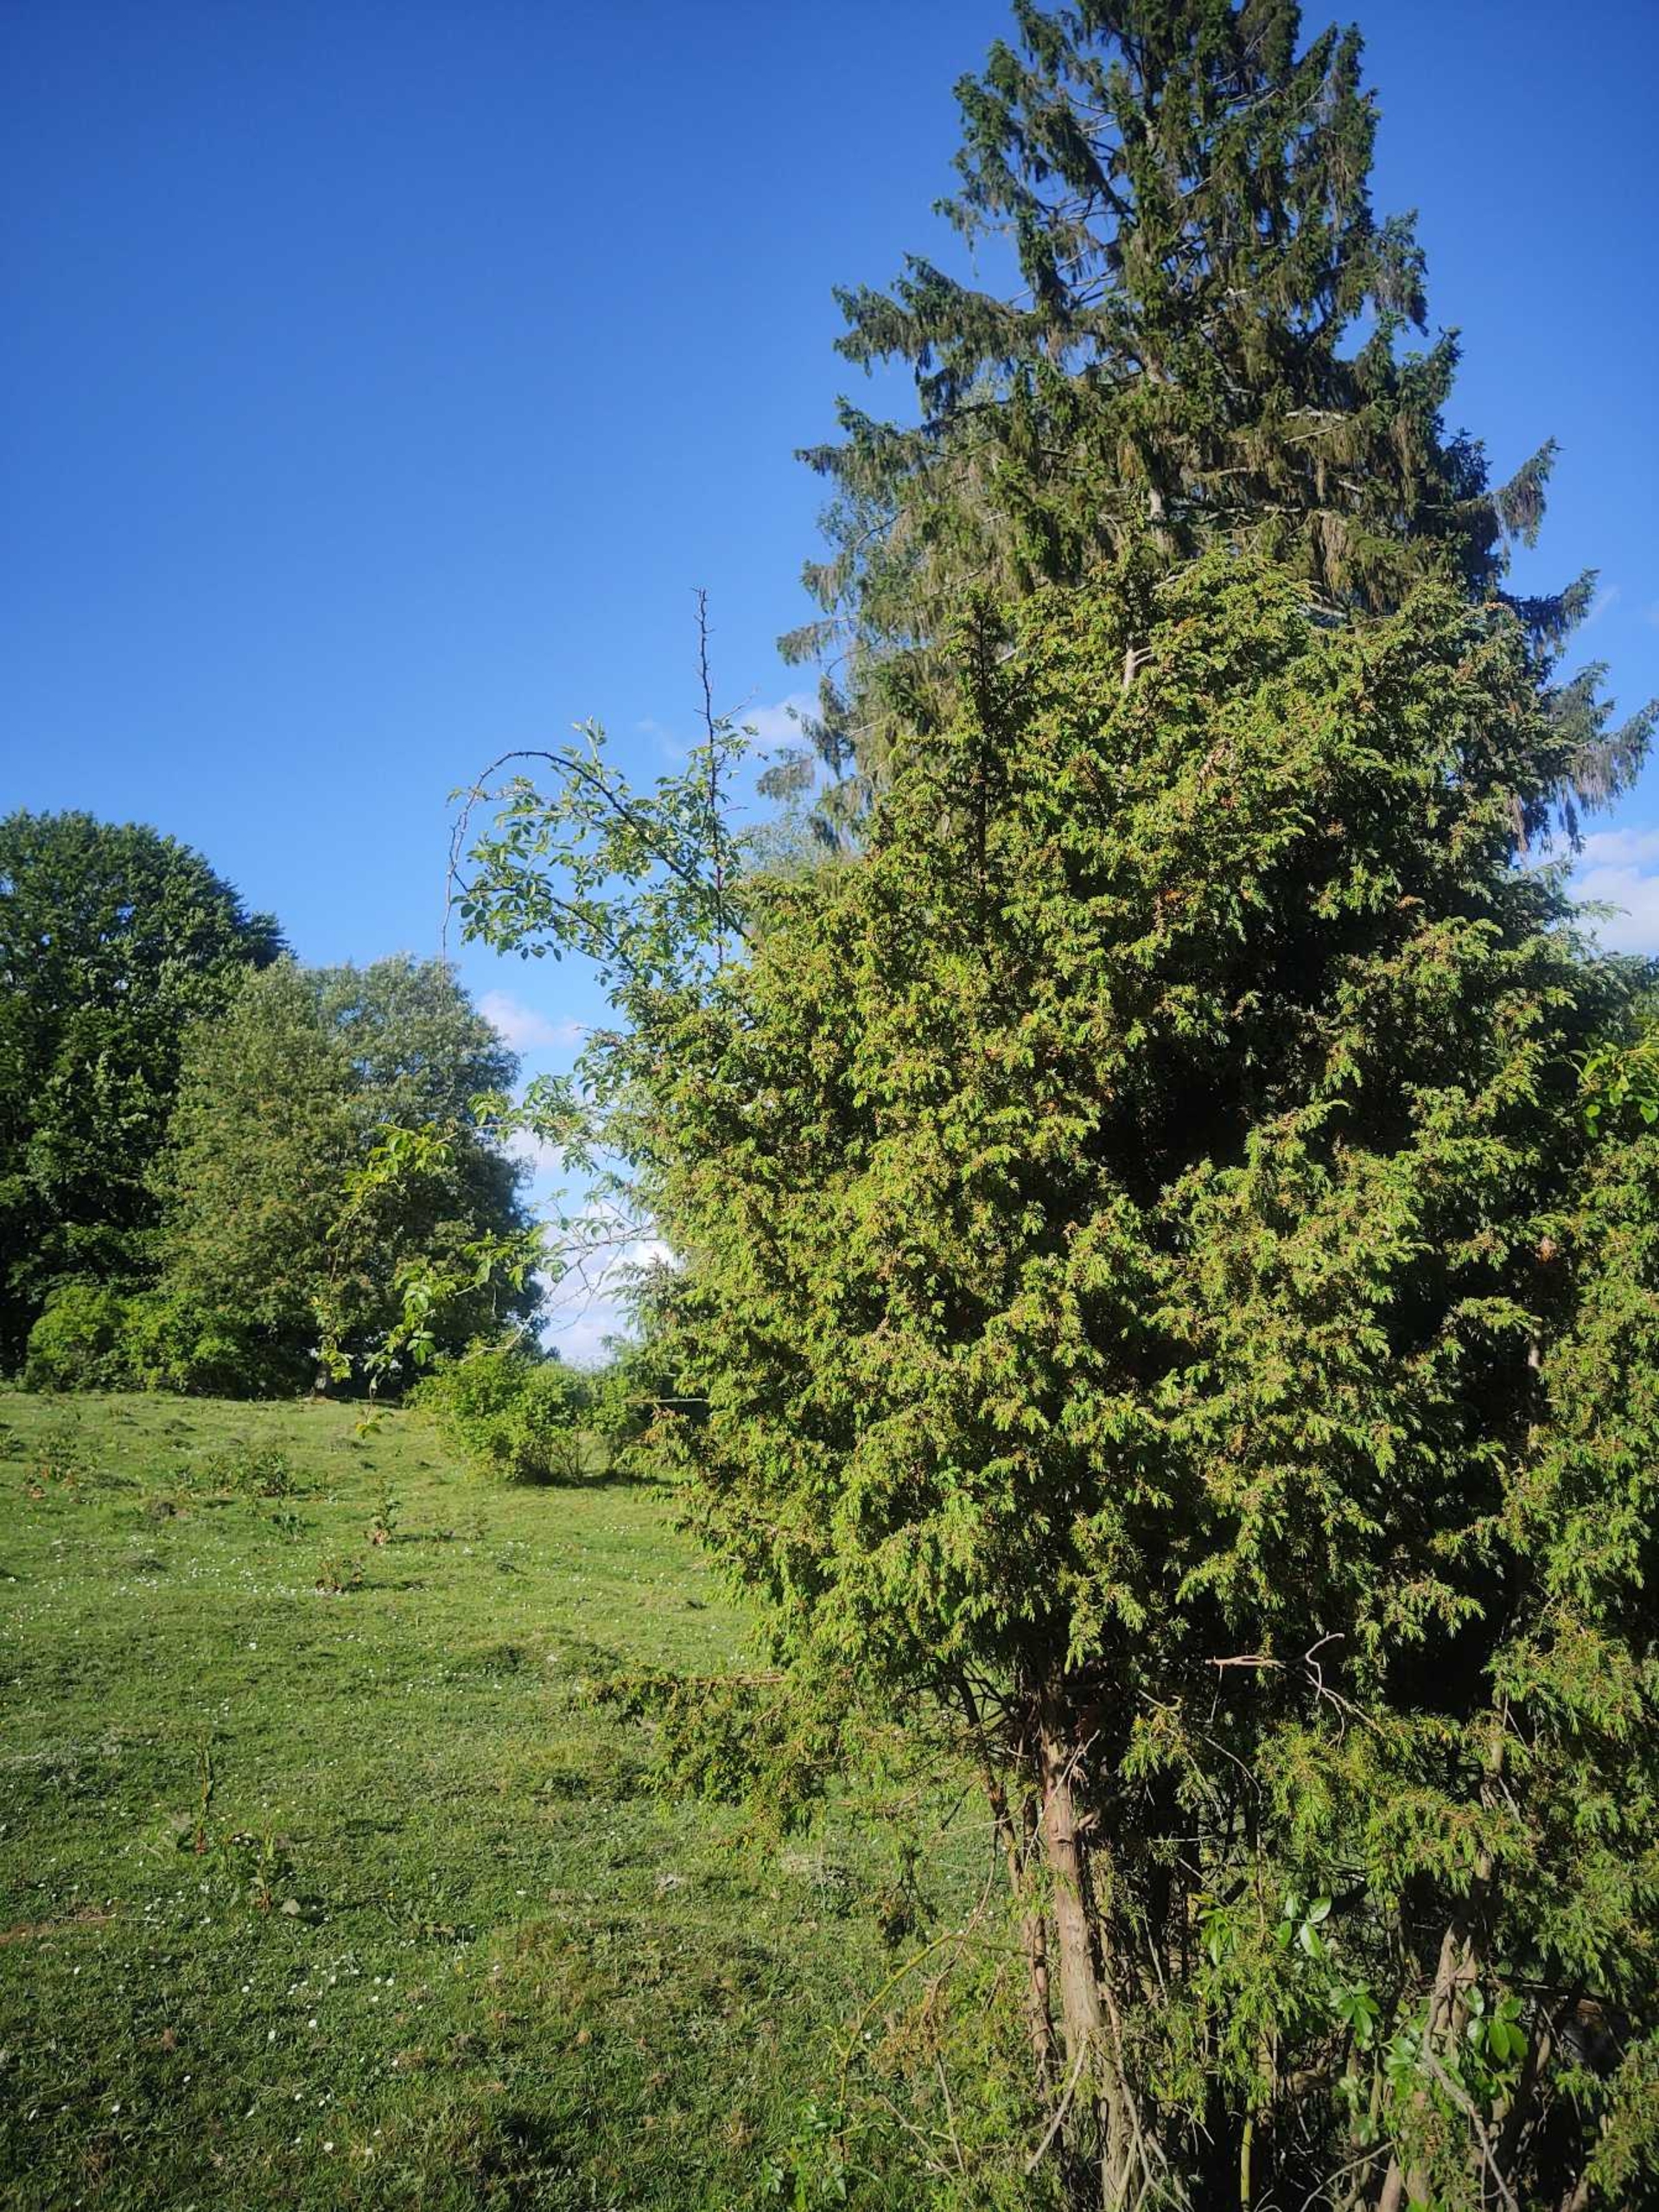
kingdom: Plantae
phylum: Tracheophyta
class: Pinopsida
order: Pinales
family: Cupressaceae
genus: Juniperus
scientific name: Juniperus communis
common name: Almindelig ene
